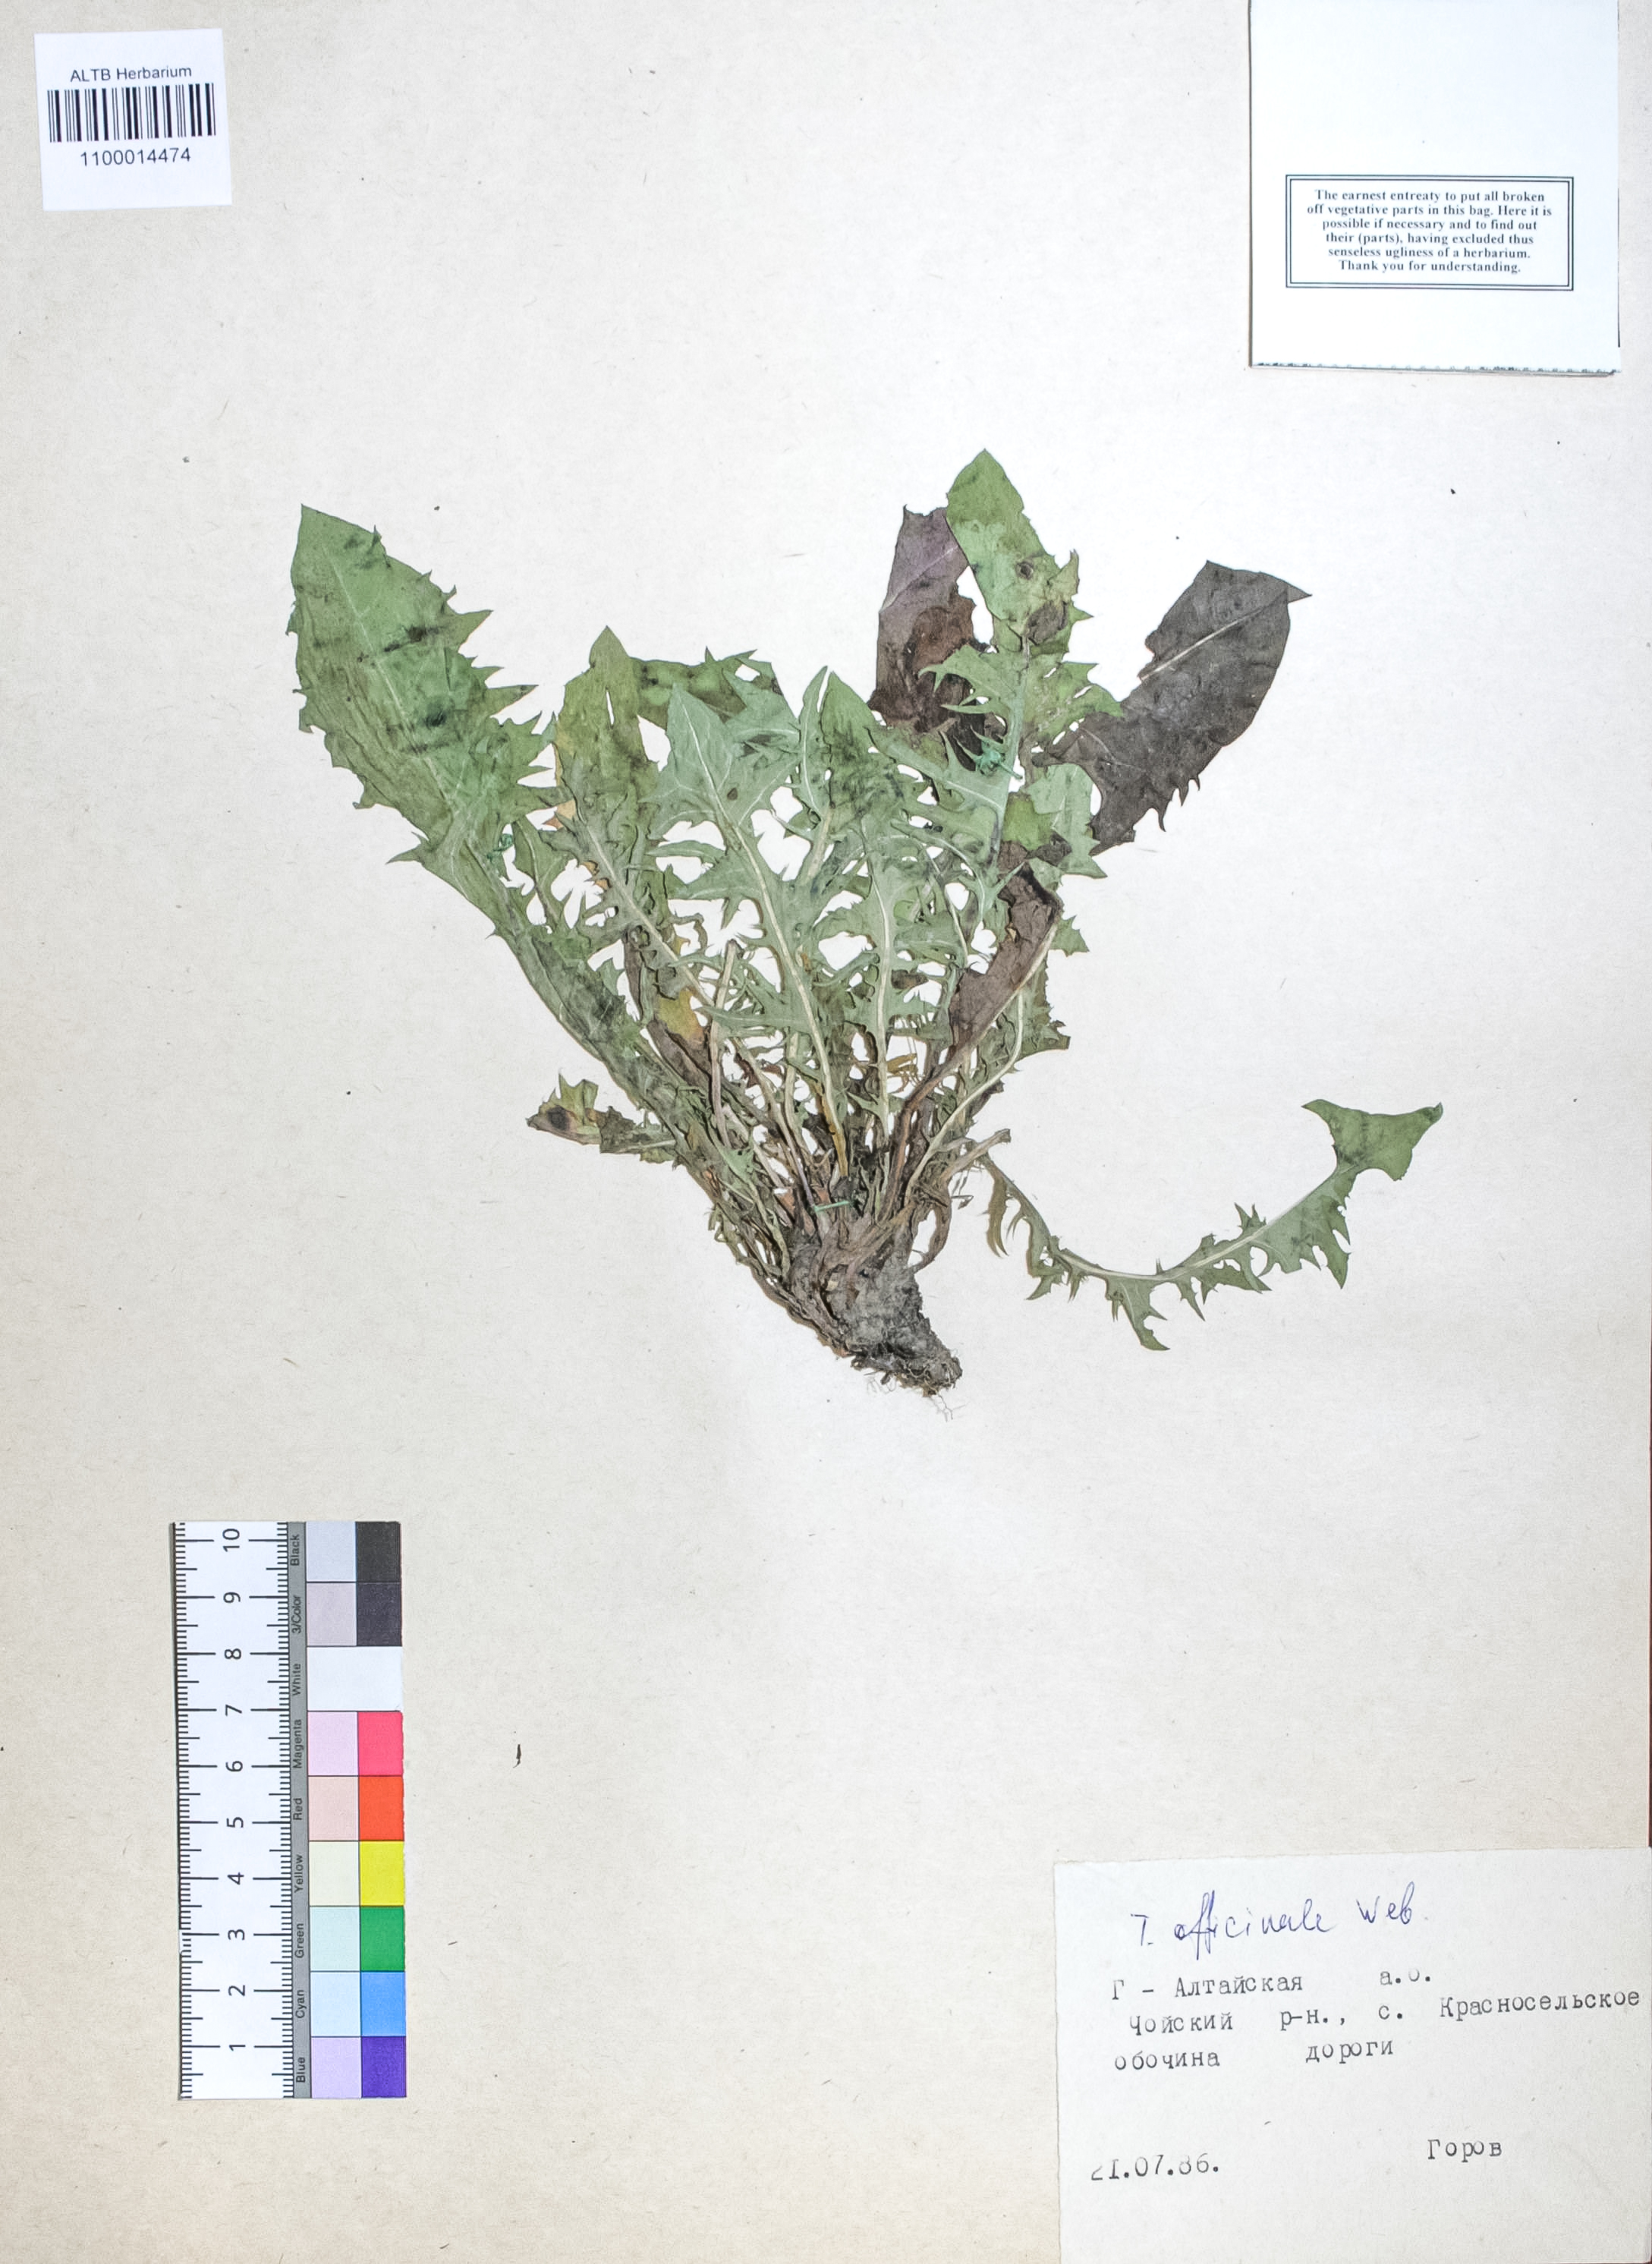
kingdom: Plantae
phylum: Tracheophyta
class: Magnoliopsida
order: Asterales
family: Asteraceae
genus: Taraxacum
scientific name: Taraxacum officinale
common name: Common dandelion
